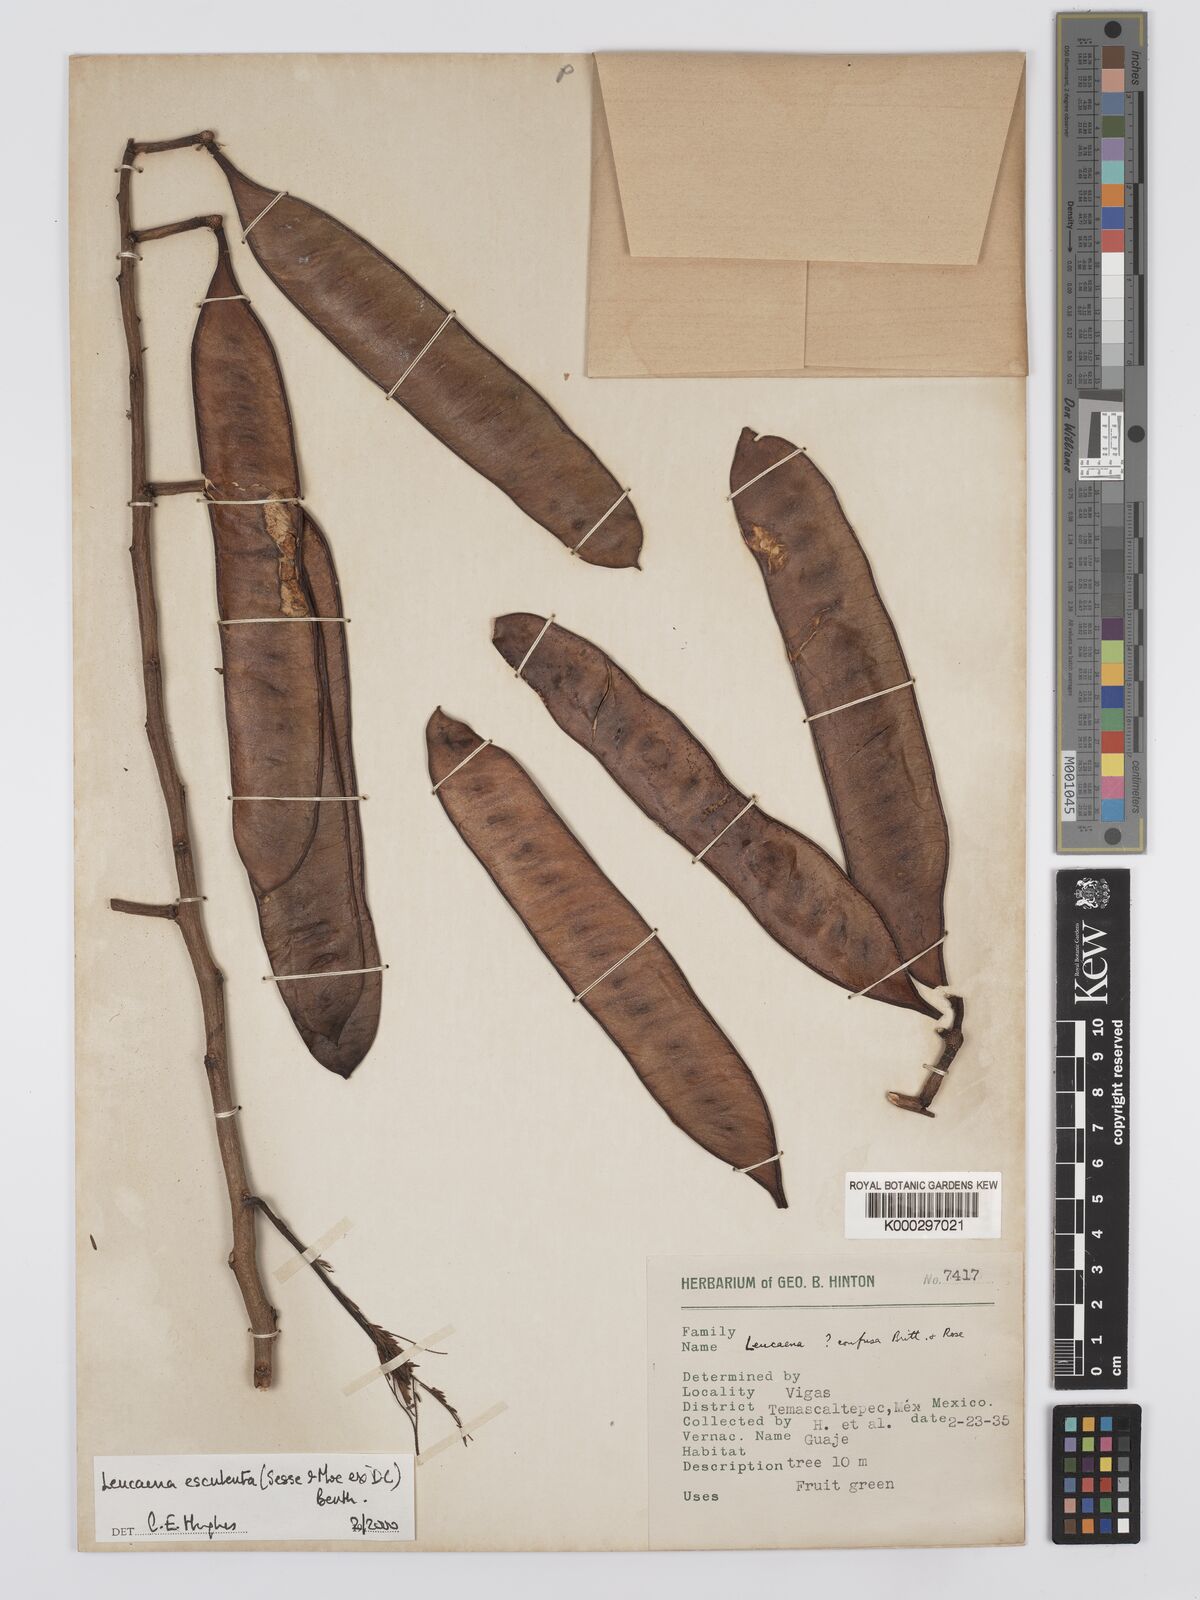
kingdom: Plantae
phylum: Tracheophyta
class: Magnoliopsida
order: Fabales
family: Fabaceae
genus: Leucaena
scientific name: Leucaena esculenta
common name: Guaje
